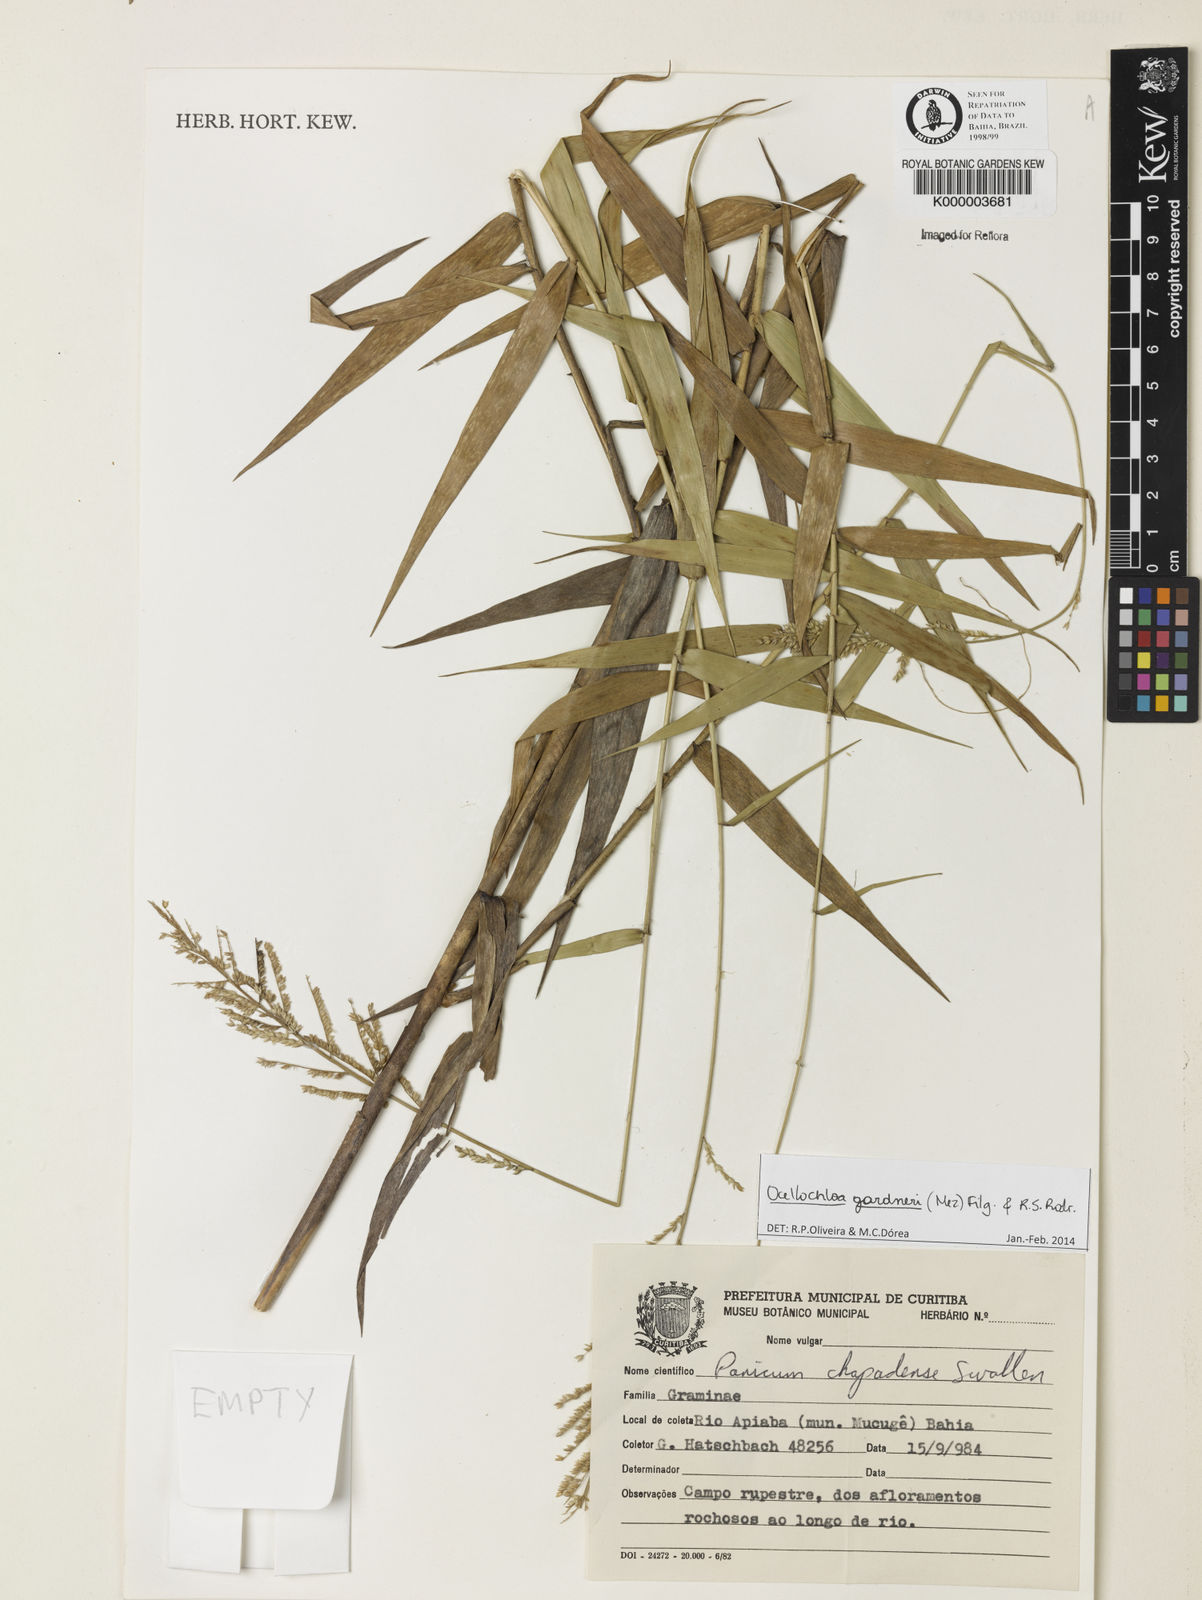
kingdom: Plantae
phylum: Tracheophyta
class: Liliopsida
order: Poales
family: Poaceae
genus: Ocellochloa
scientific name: Ocellochloa chapadensis
